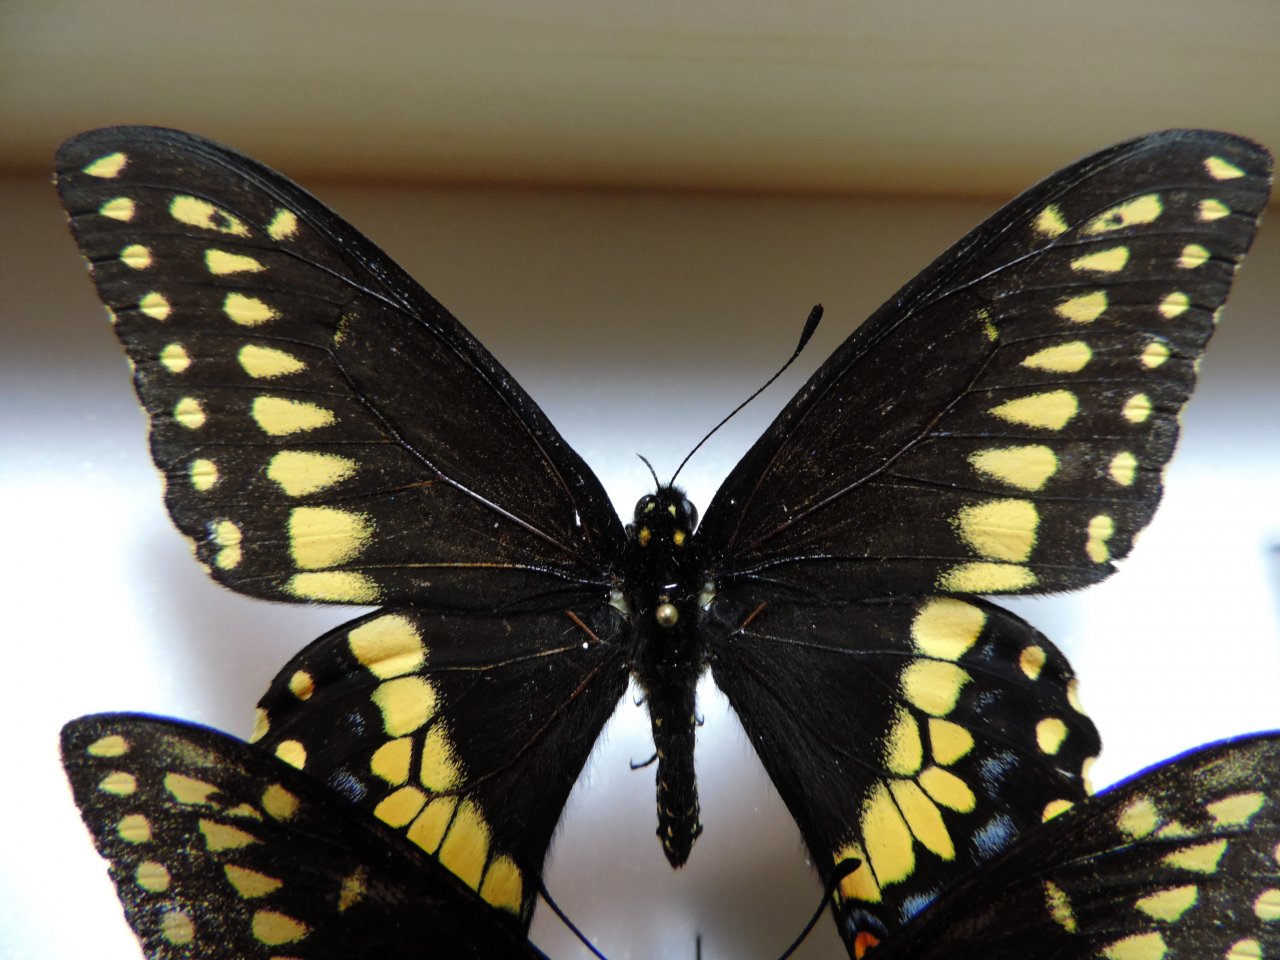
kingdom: Animalia
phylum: Arthropoda
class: Insecta
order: Lepidoptera
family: Papilionidae
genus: Papilio
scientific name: Papilio polyxenes
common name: Black Swallowtail
